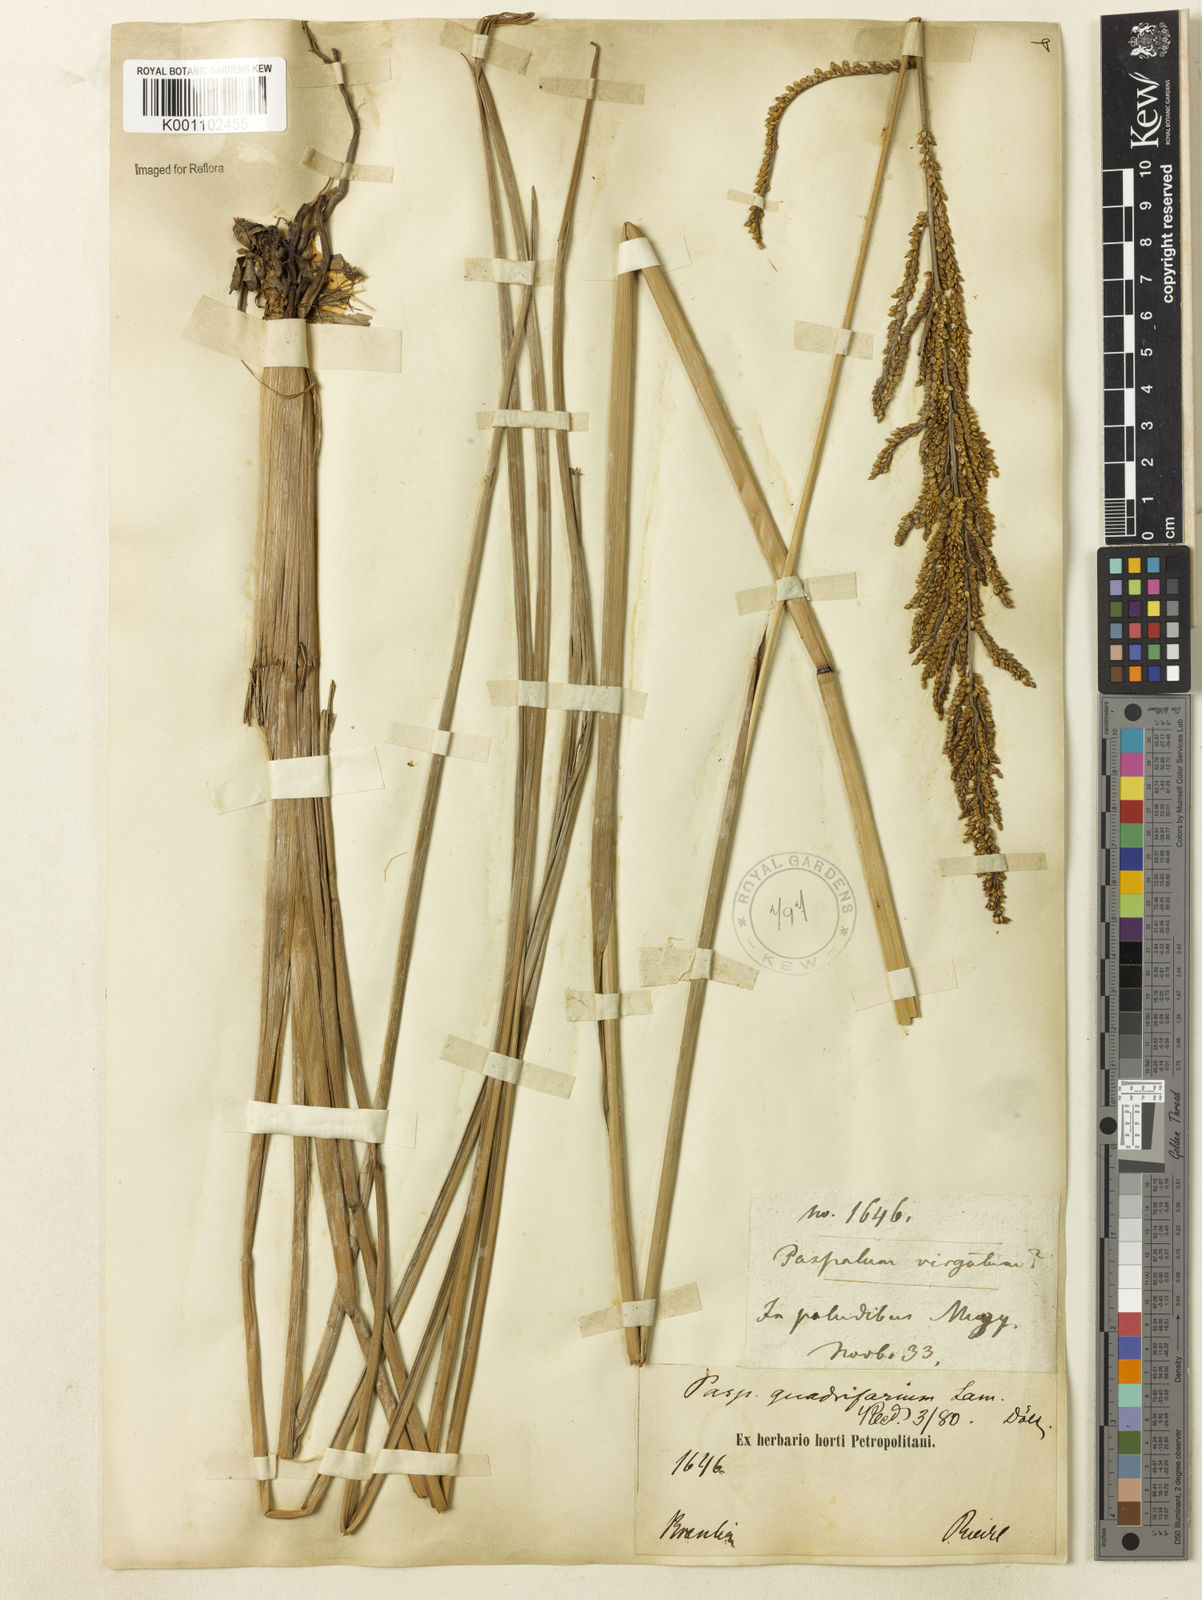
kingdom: Plantae
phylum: Tracheophyta
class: Liliopsida
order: Poales
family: Poaceae
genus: Paspalum
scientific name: Paspalum quadrifarium
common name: Tussock paspalum
